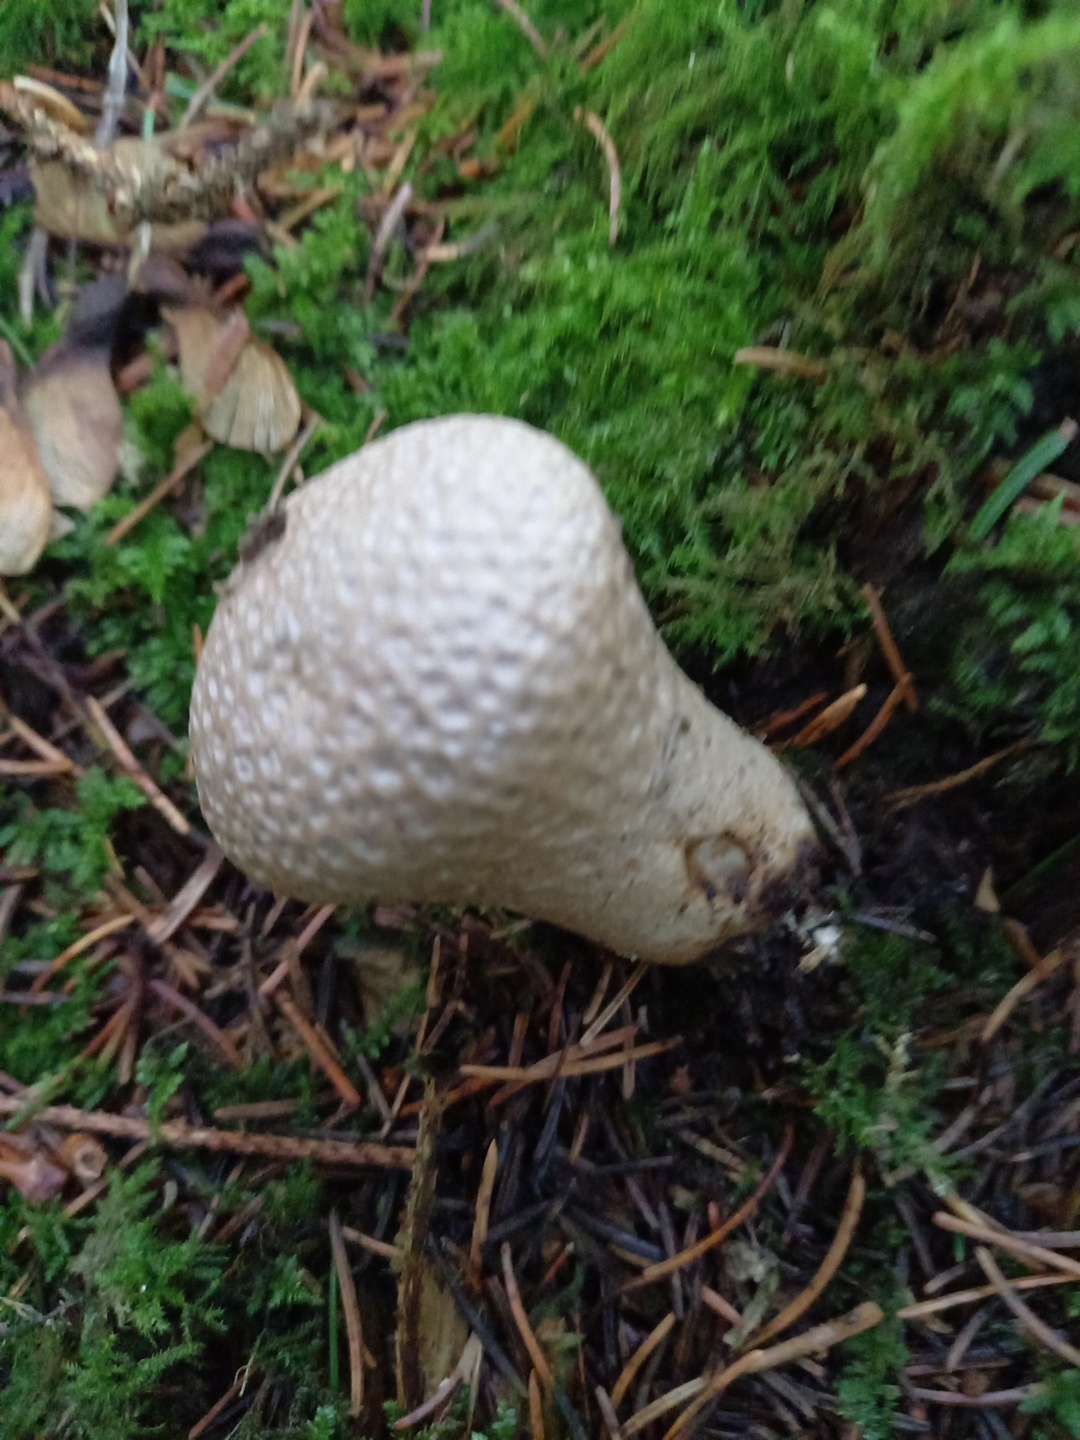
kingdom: Fungi
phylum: Basidiomycota
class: Agaricomycetes
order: Agaricales
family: Agaricaceae
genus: Lycoperdon
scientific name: Lycoperdon
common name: støvbold
